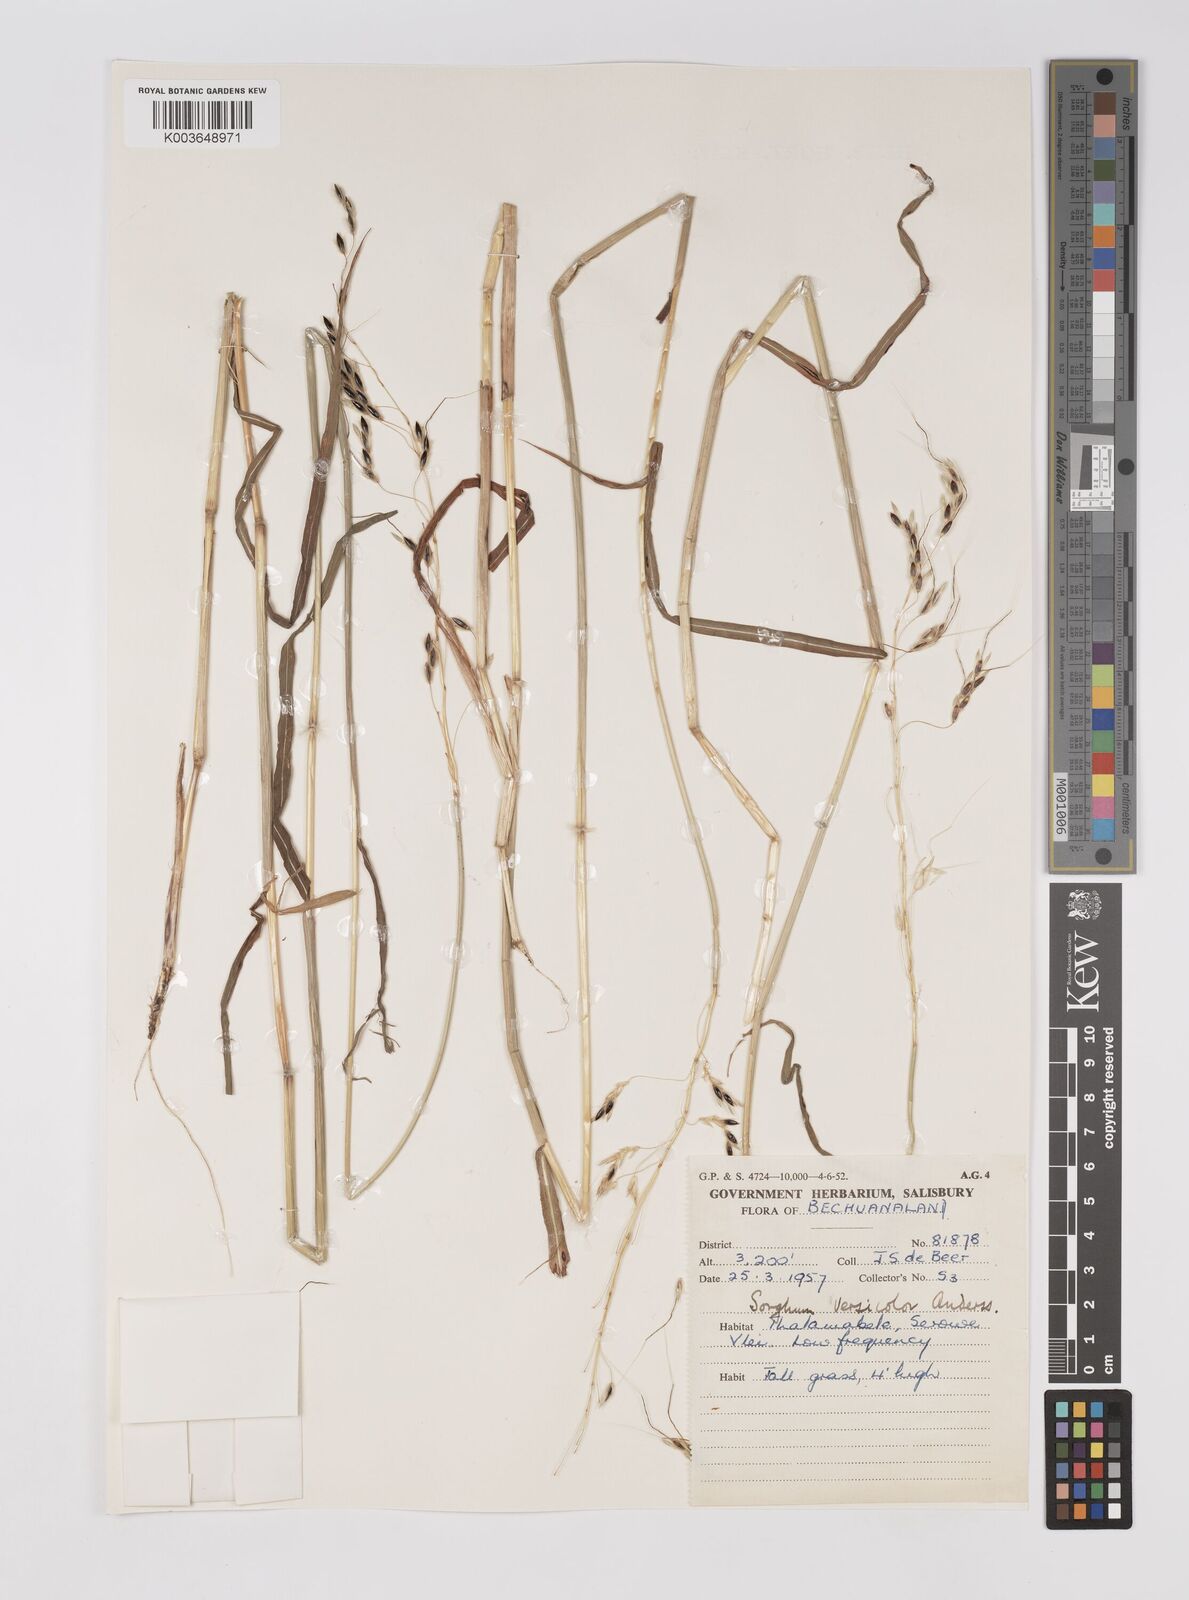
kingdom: Plantae
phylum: Tracheophyta
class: Liliopsida
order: Poales
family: Poaceae
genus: Sarga
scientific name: Sarga versicolor
